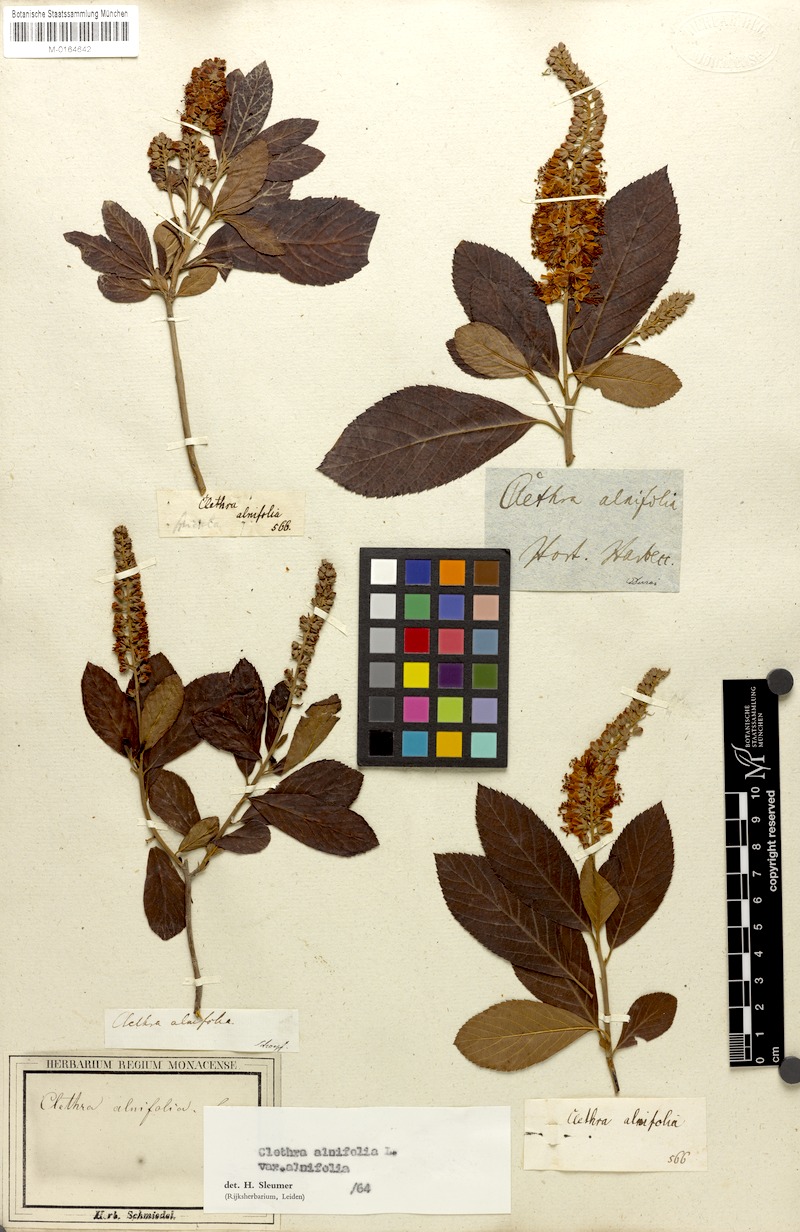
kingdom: Plantae
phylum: Tracheophyta
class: Magnoliopsida
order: Ericales
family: Clethraceae
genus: Clethra
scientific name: Clethra alnifolia
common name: Sweet pepperbush
